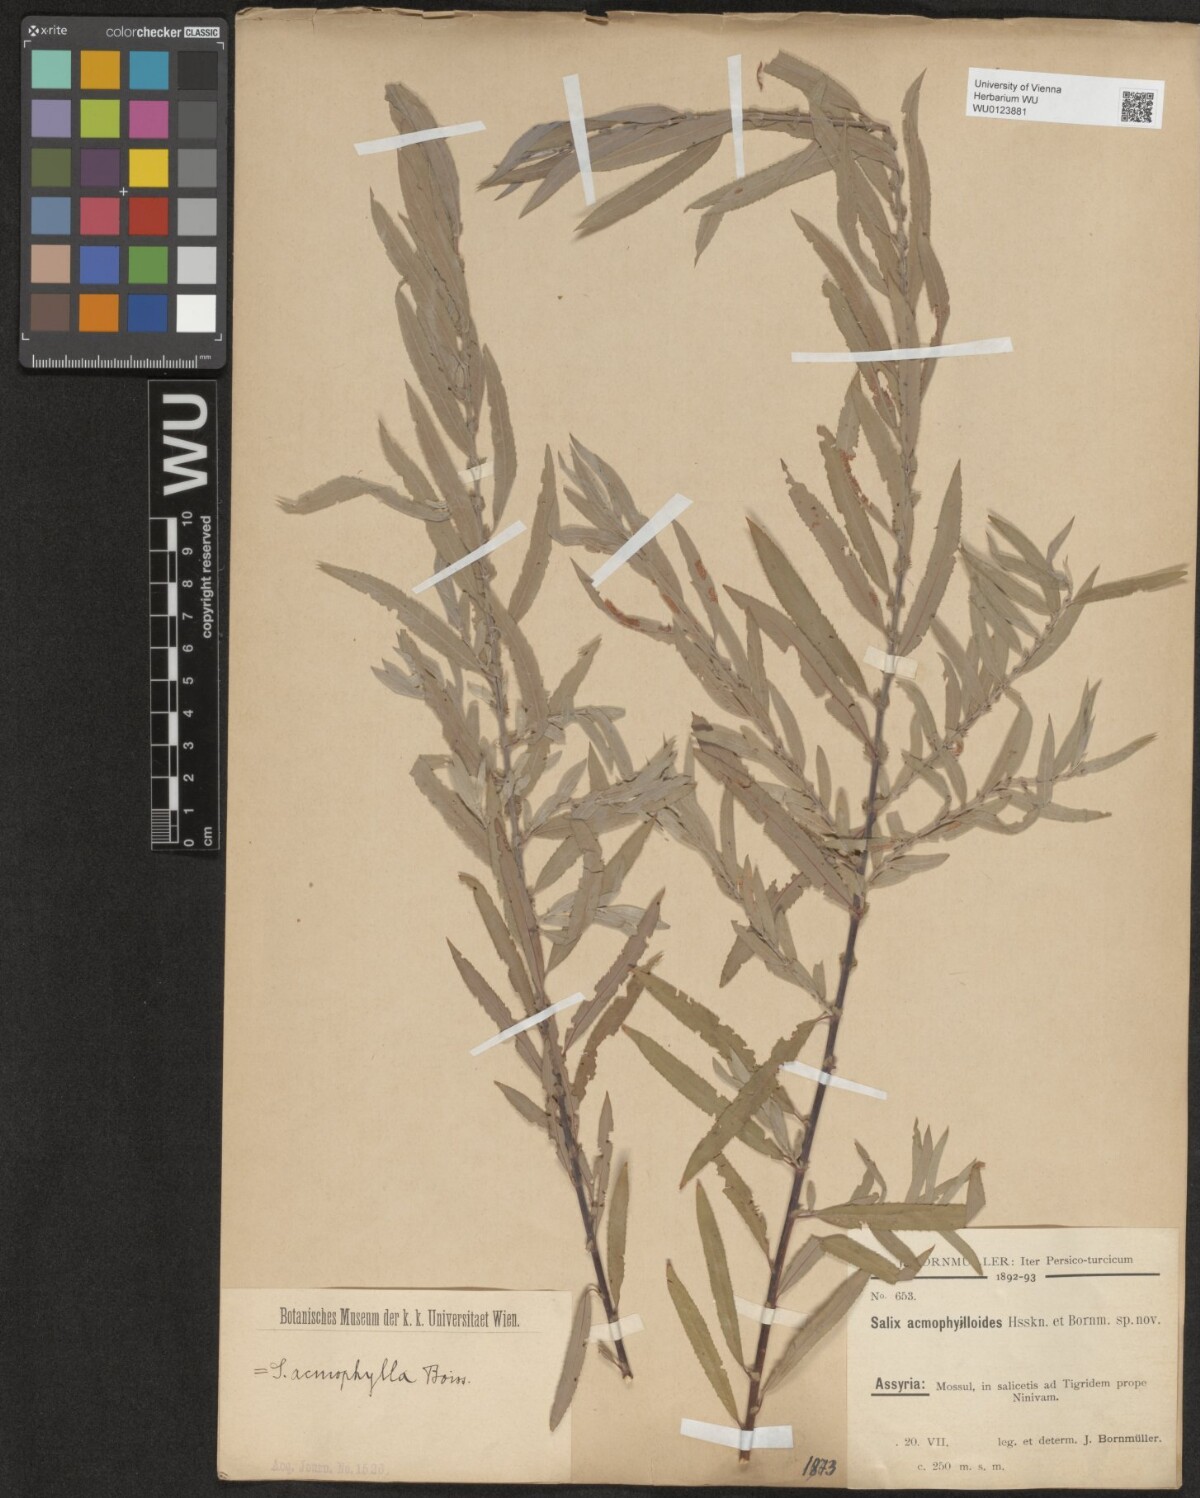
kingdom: Plantae
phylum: Tracheophyta
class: Magnoliopsida
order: Malpighiales
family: Salicaceae
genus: Salix
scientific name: Salix
